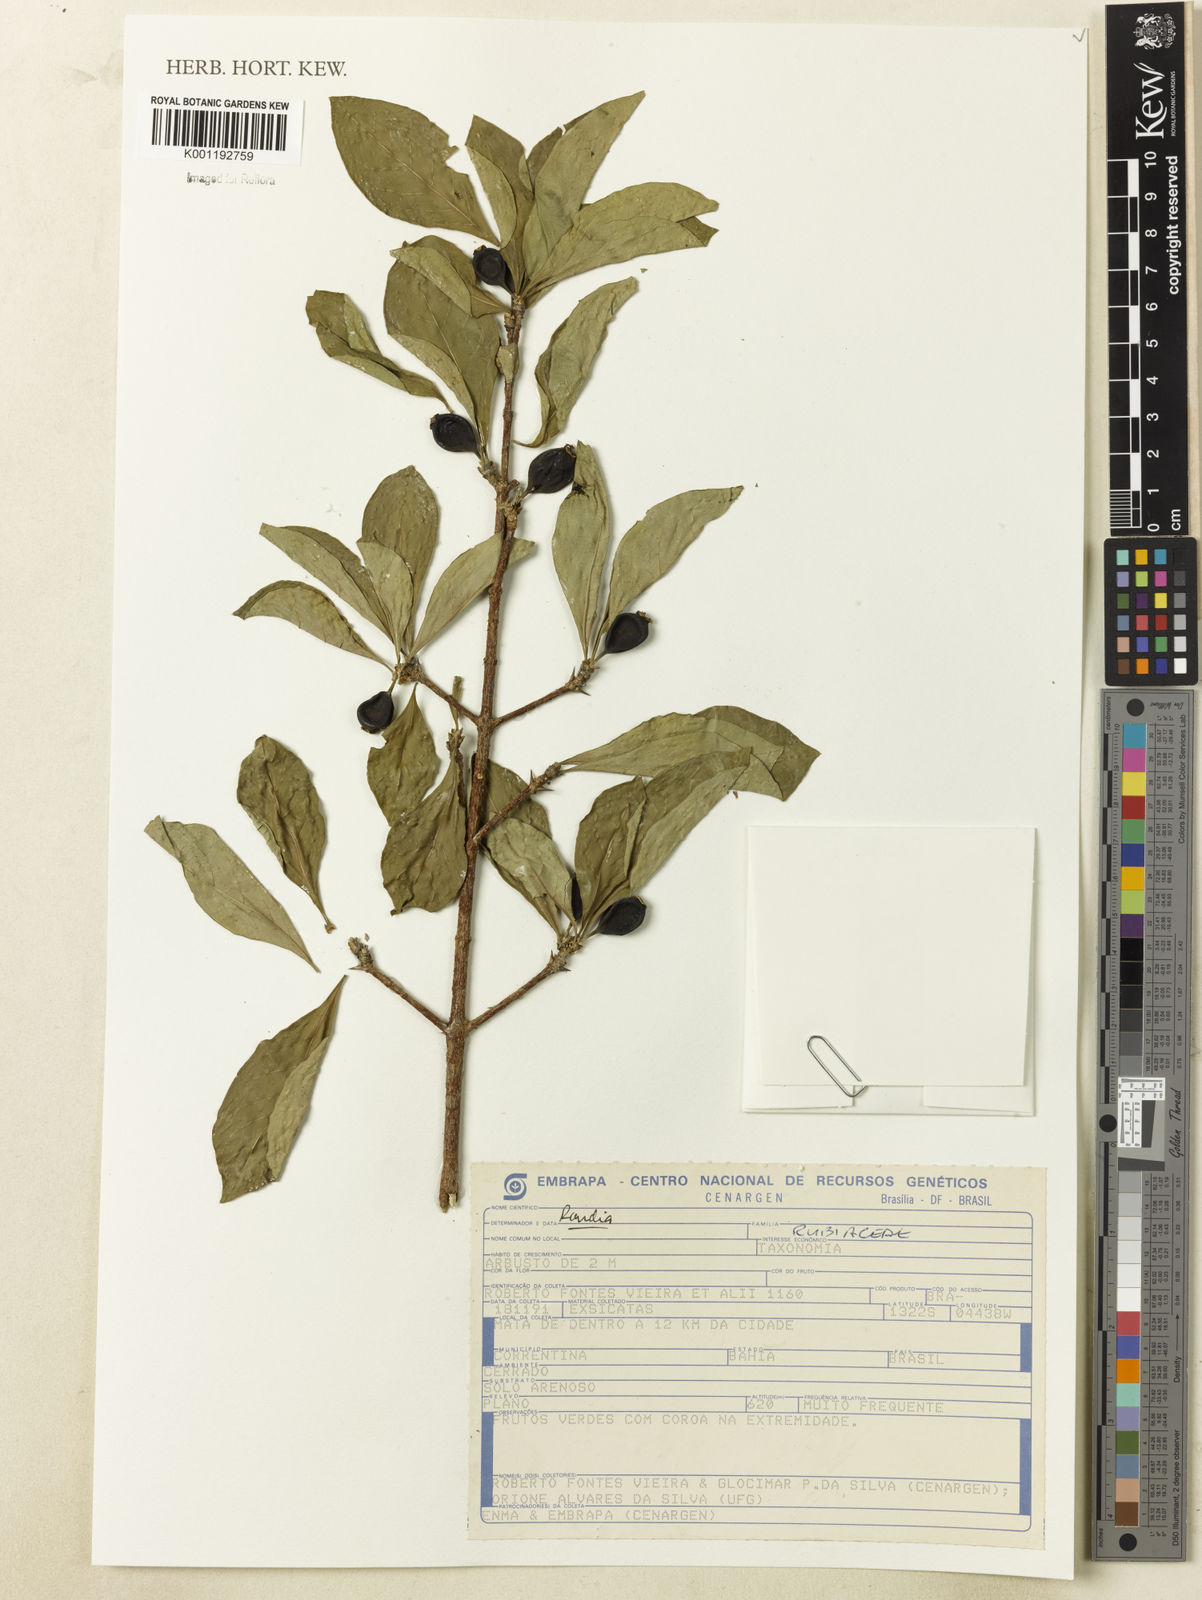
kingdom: Plantae
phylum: Tracheophyta
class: Magnoliopsida
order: Gentianales
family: Rubiaceae
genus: Randia
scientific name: Randia
